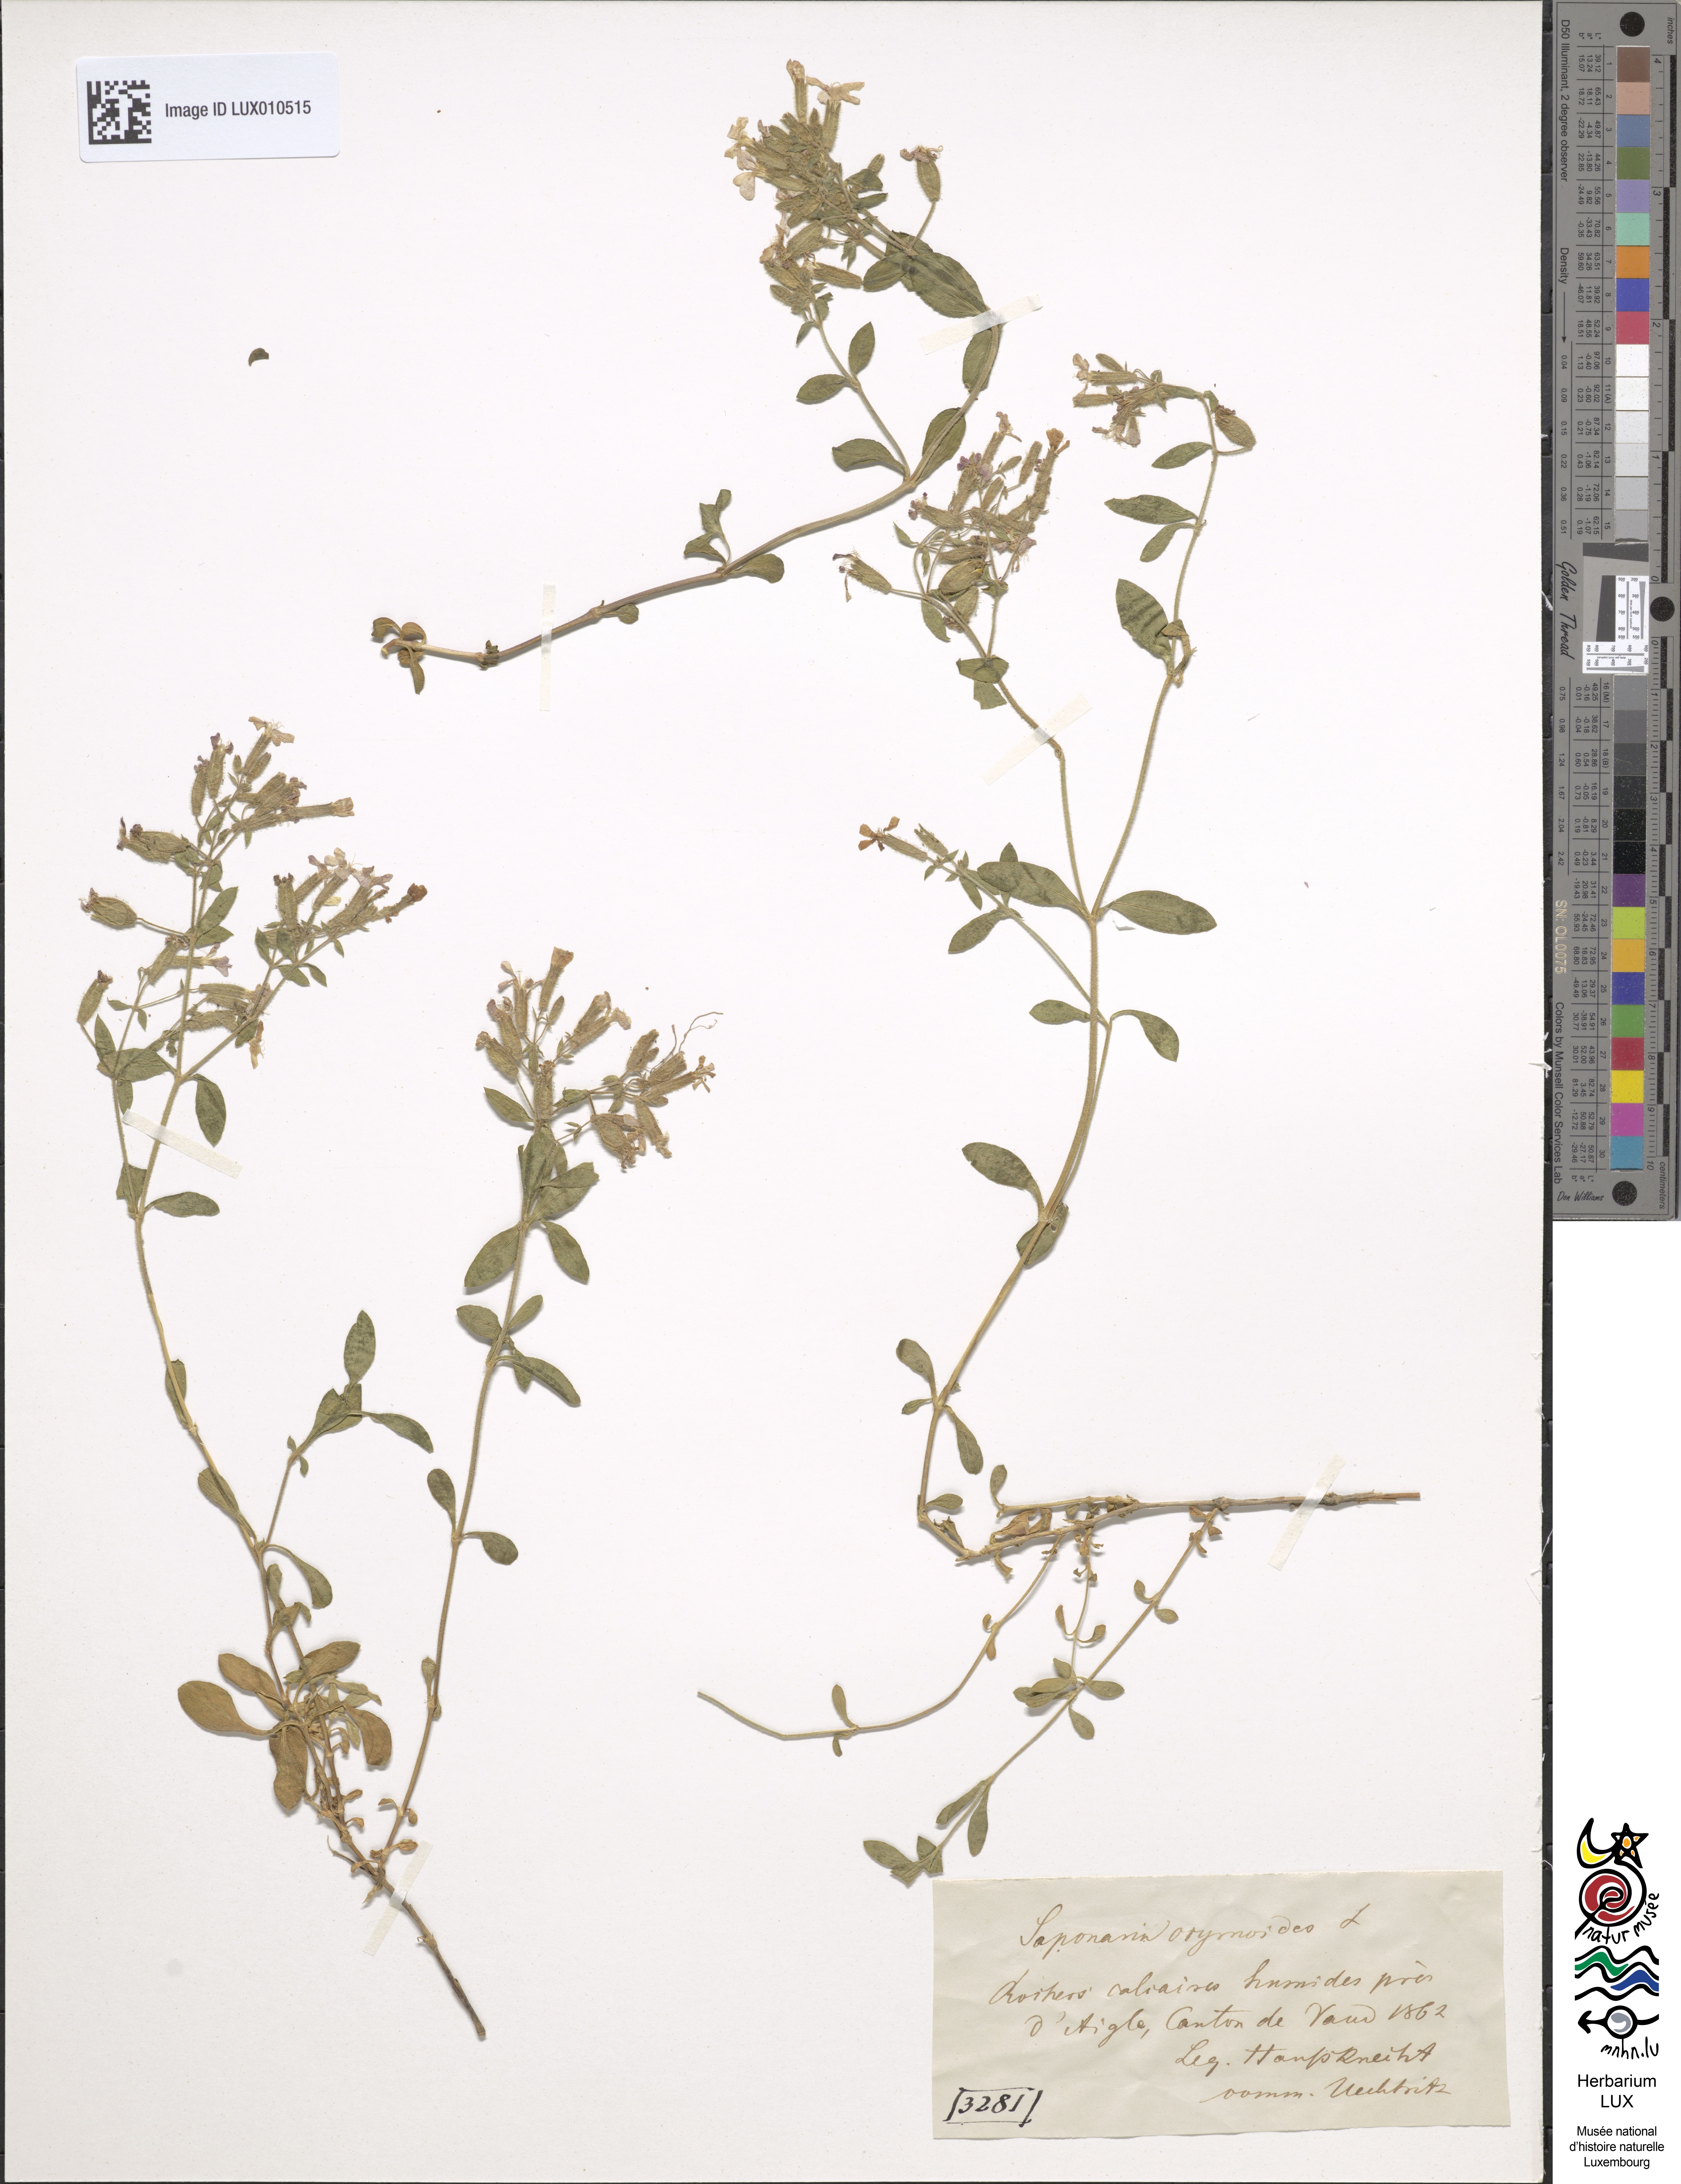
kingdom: Plantae
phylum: Tracheophyta
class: Magnoliopsida
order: Caryophyllales
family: Caryophyllaceae
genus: Saponaria
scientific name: Saponaria ocymoides
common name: Rock soapwort
